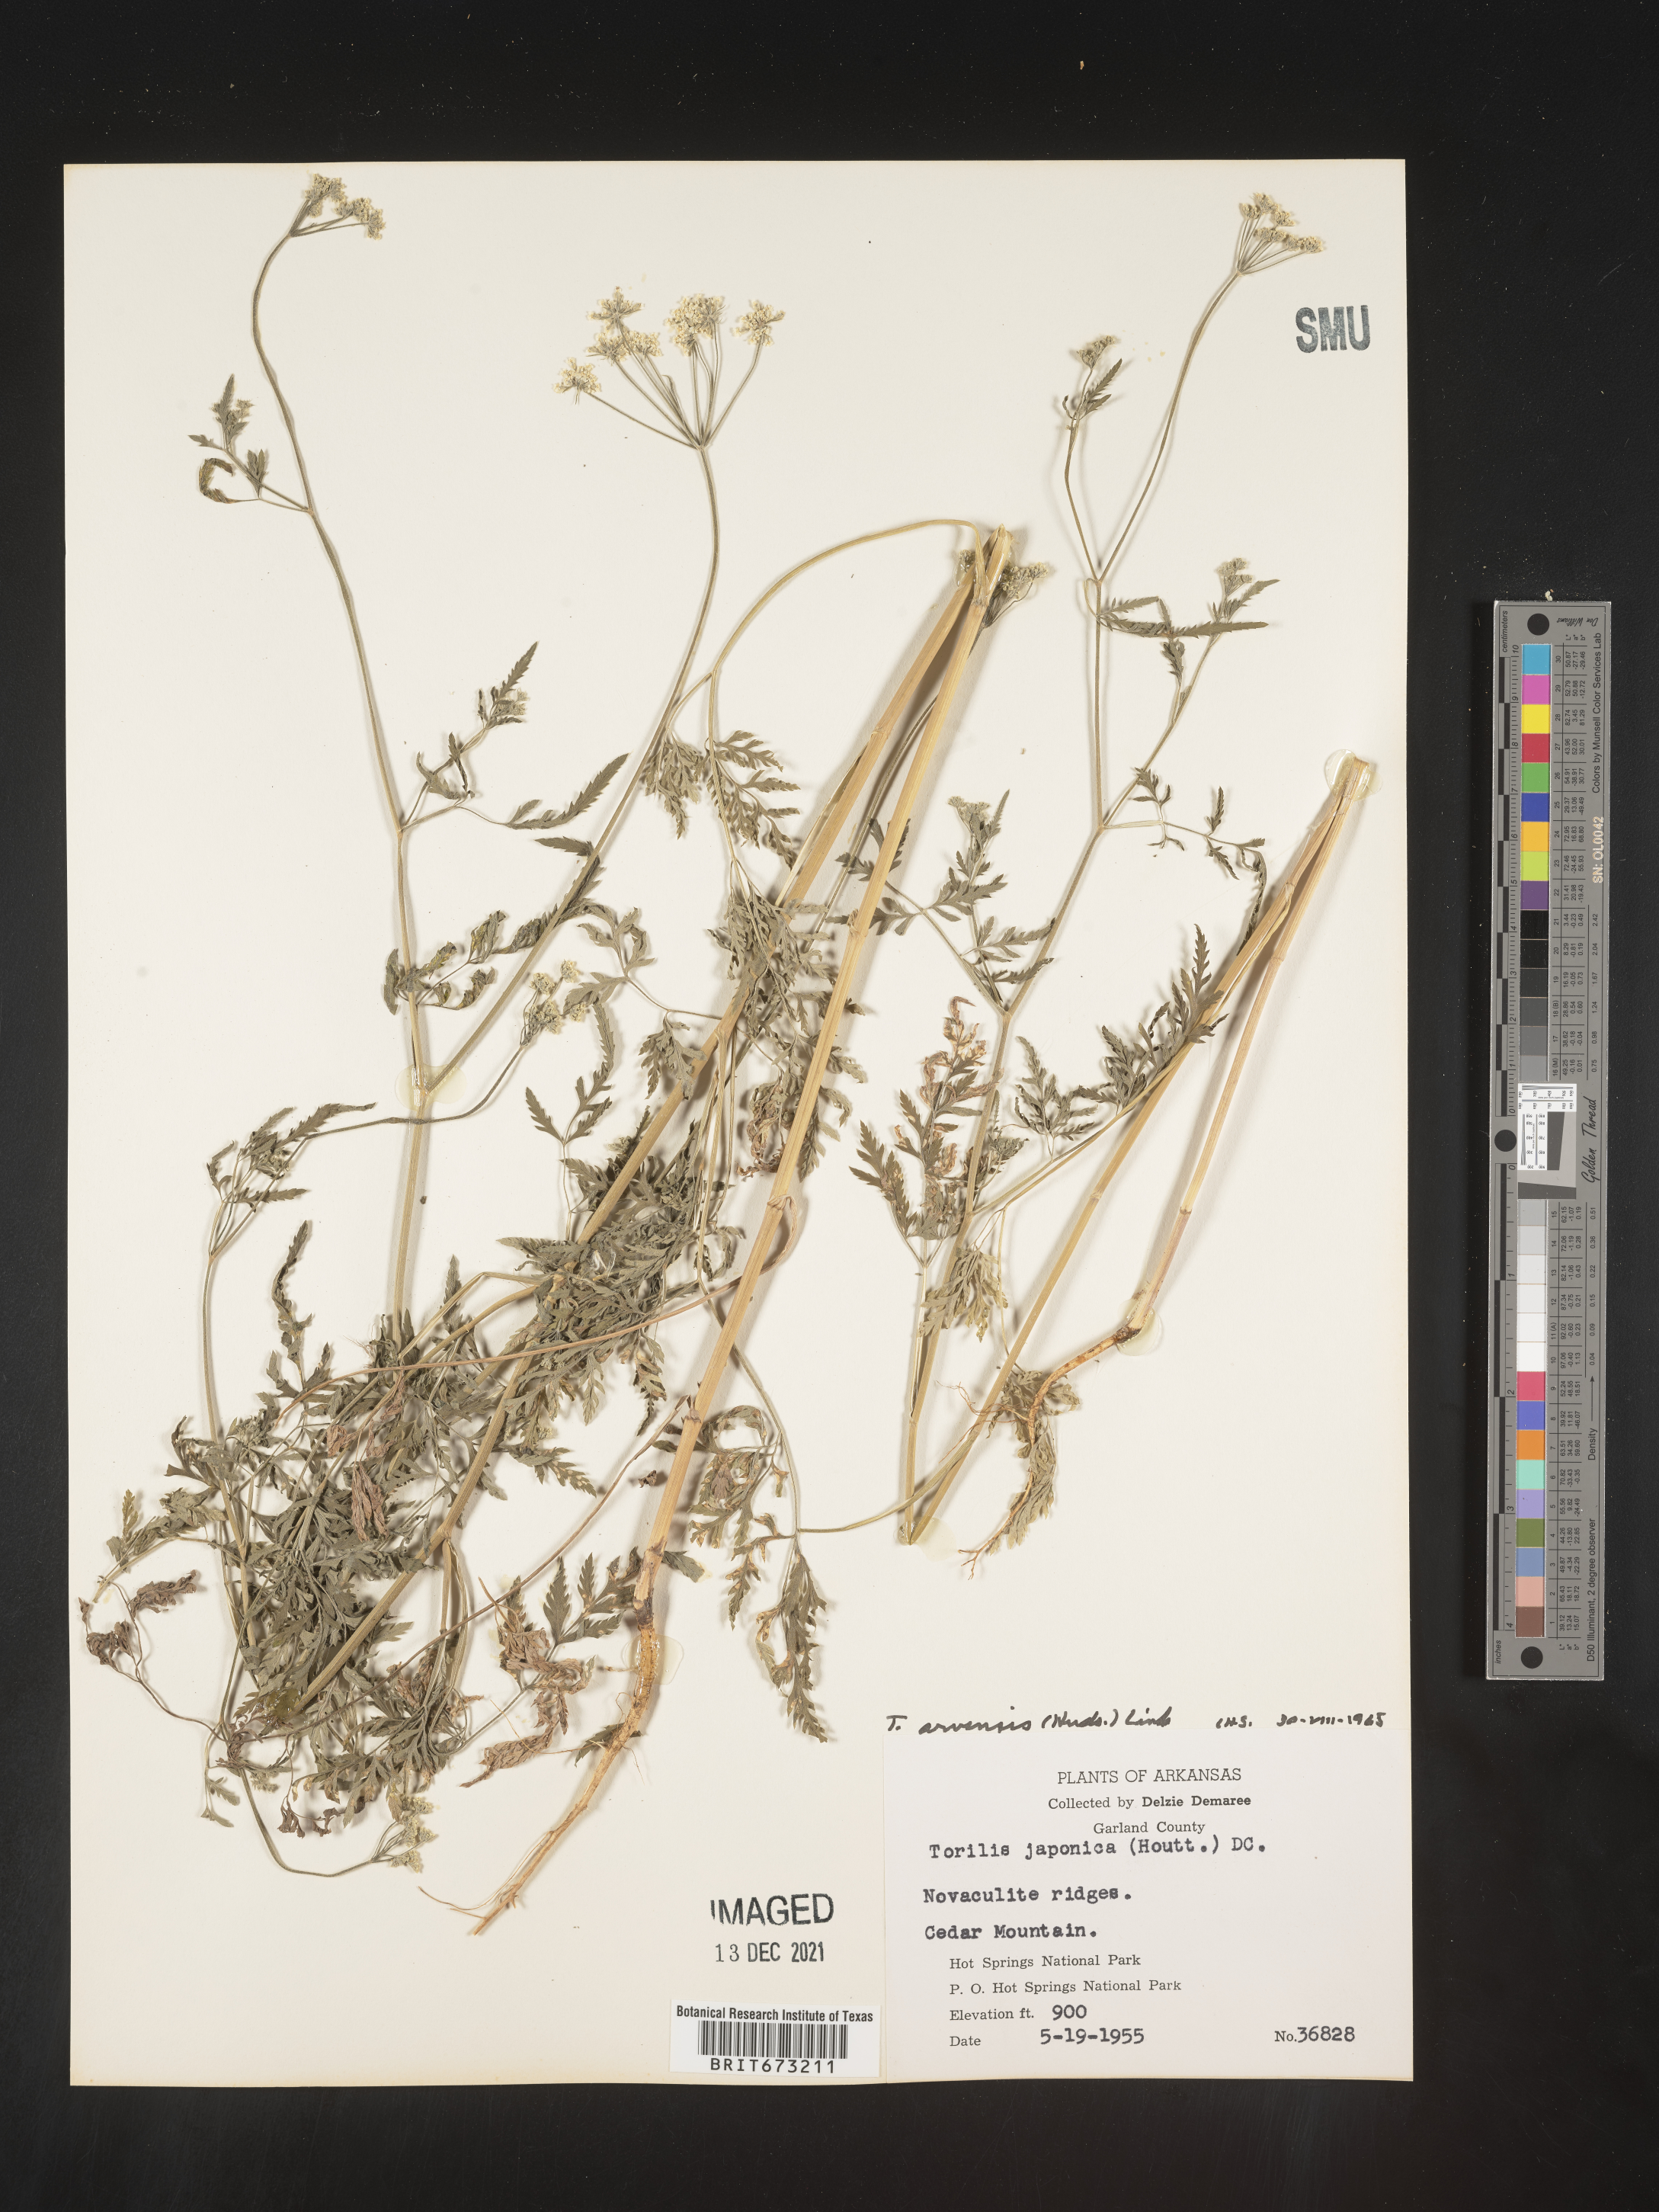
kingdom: Plantae
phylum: Tracheophyta
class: Magnoliopsida
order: Apiales
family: Apiaceae
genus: Torilis
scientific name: Torilis arvensis
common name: Spreading hedge-parsley
